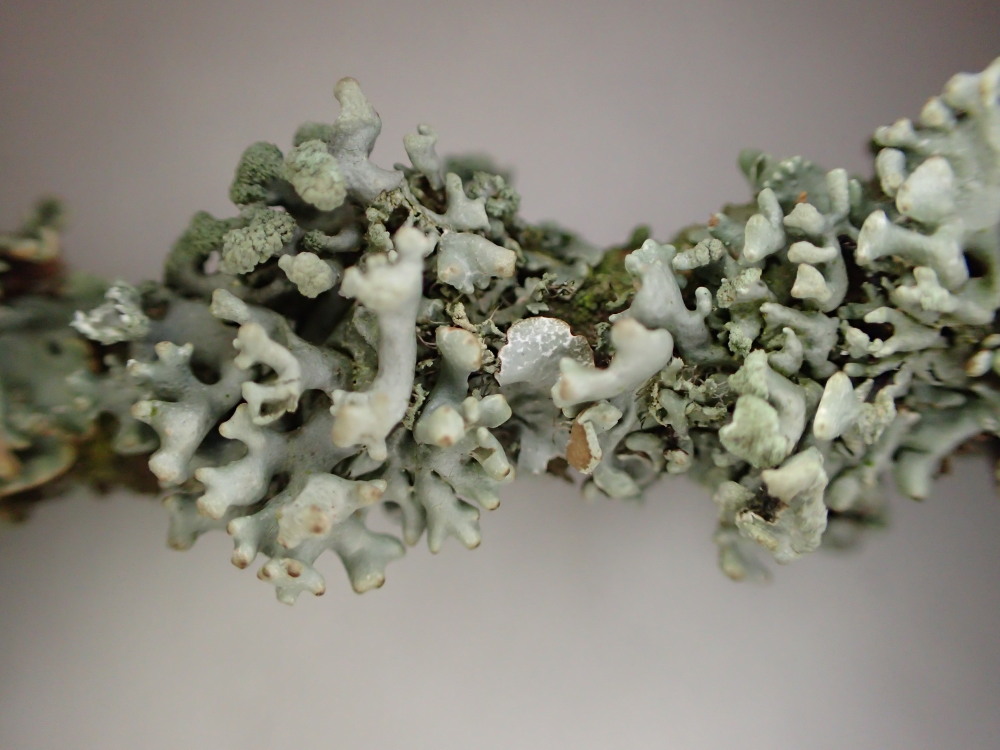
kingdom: Fungi
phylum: Ascomycota
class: Lecanoromycetes
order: Lecanorales
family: Parmeliaceae
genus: Hypogymnia
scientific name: Hypogymnia tubulosa
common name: finger-kvistlav
